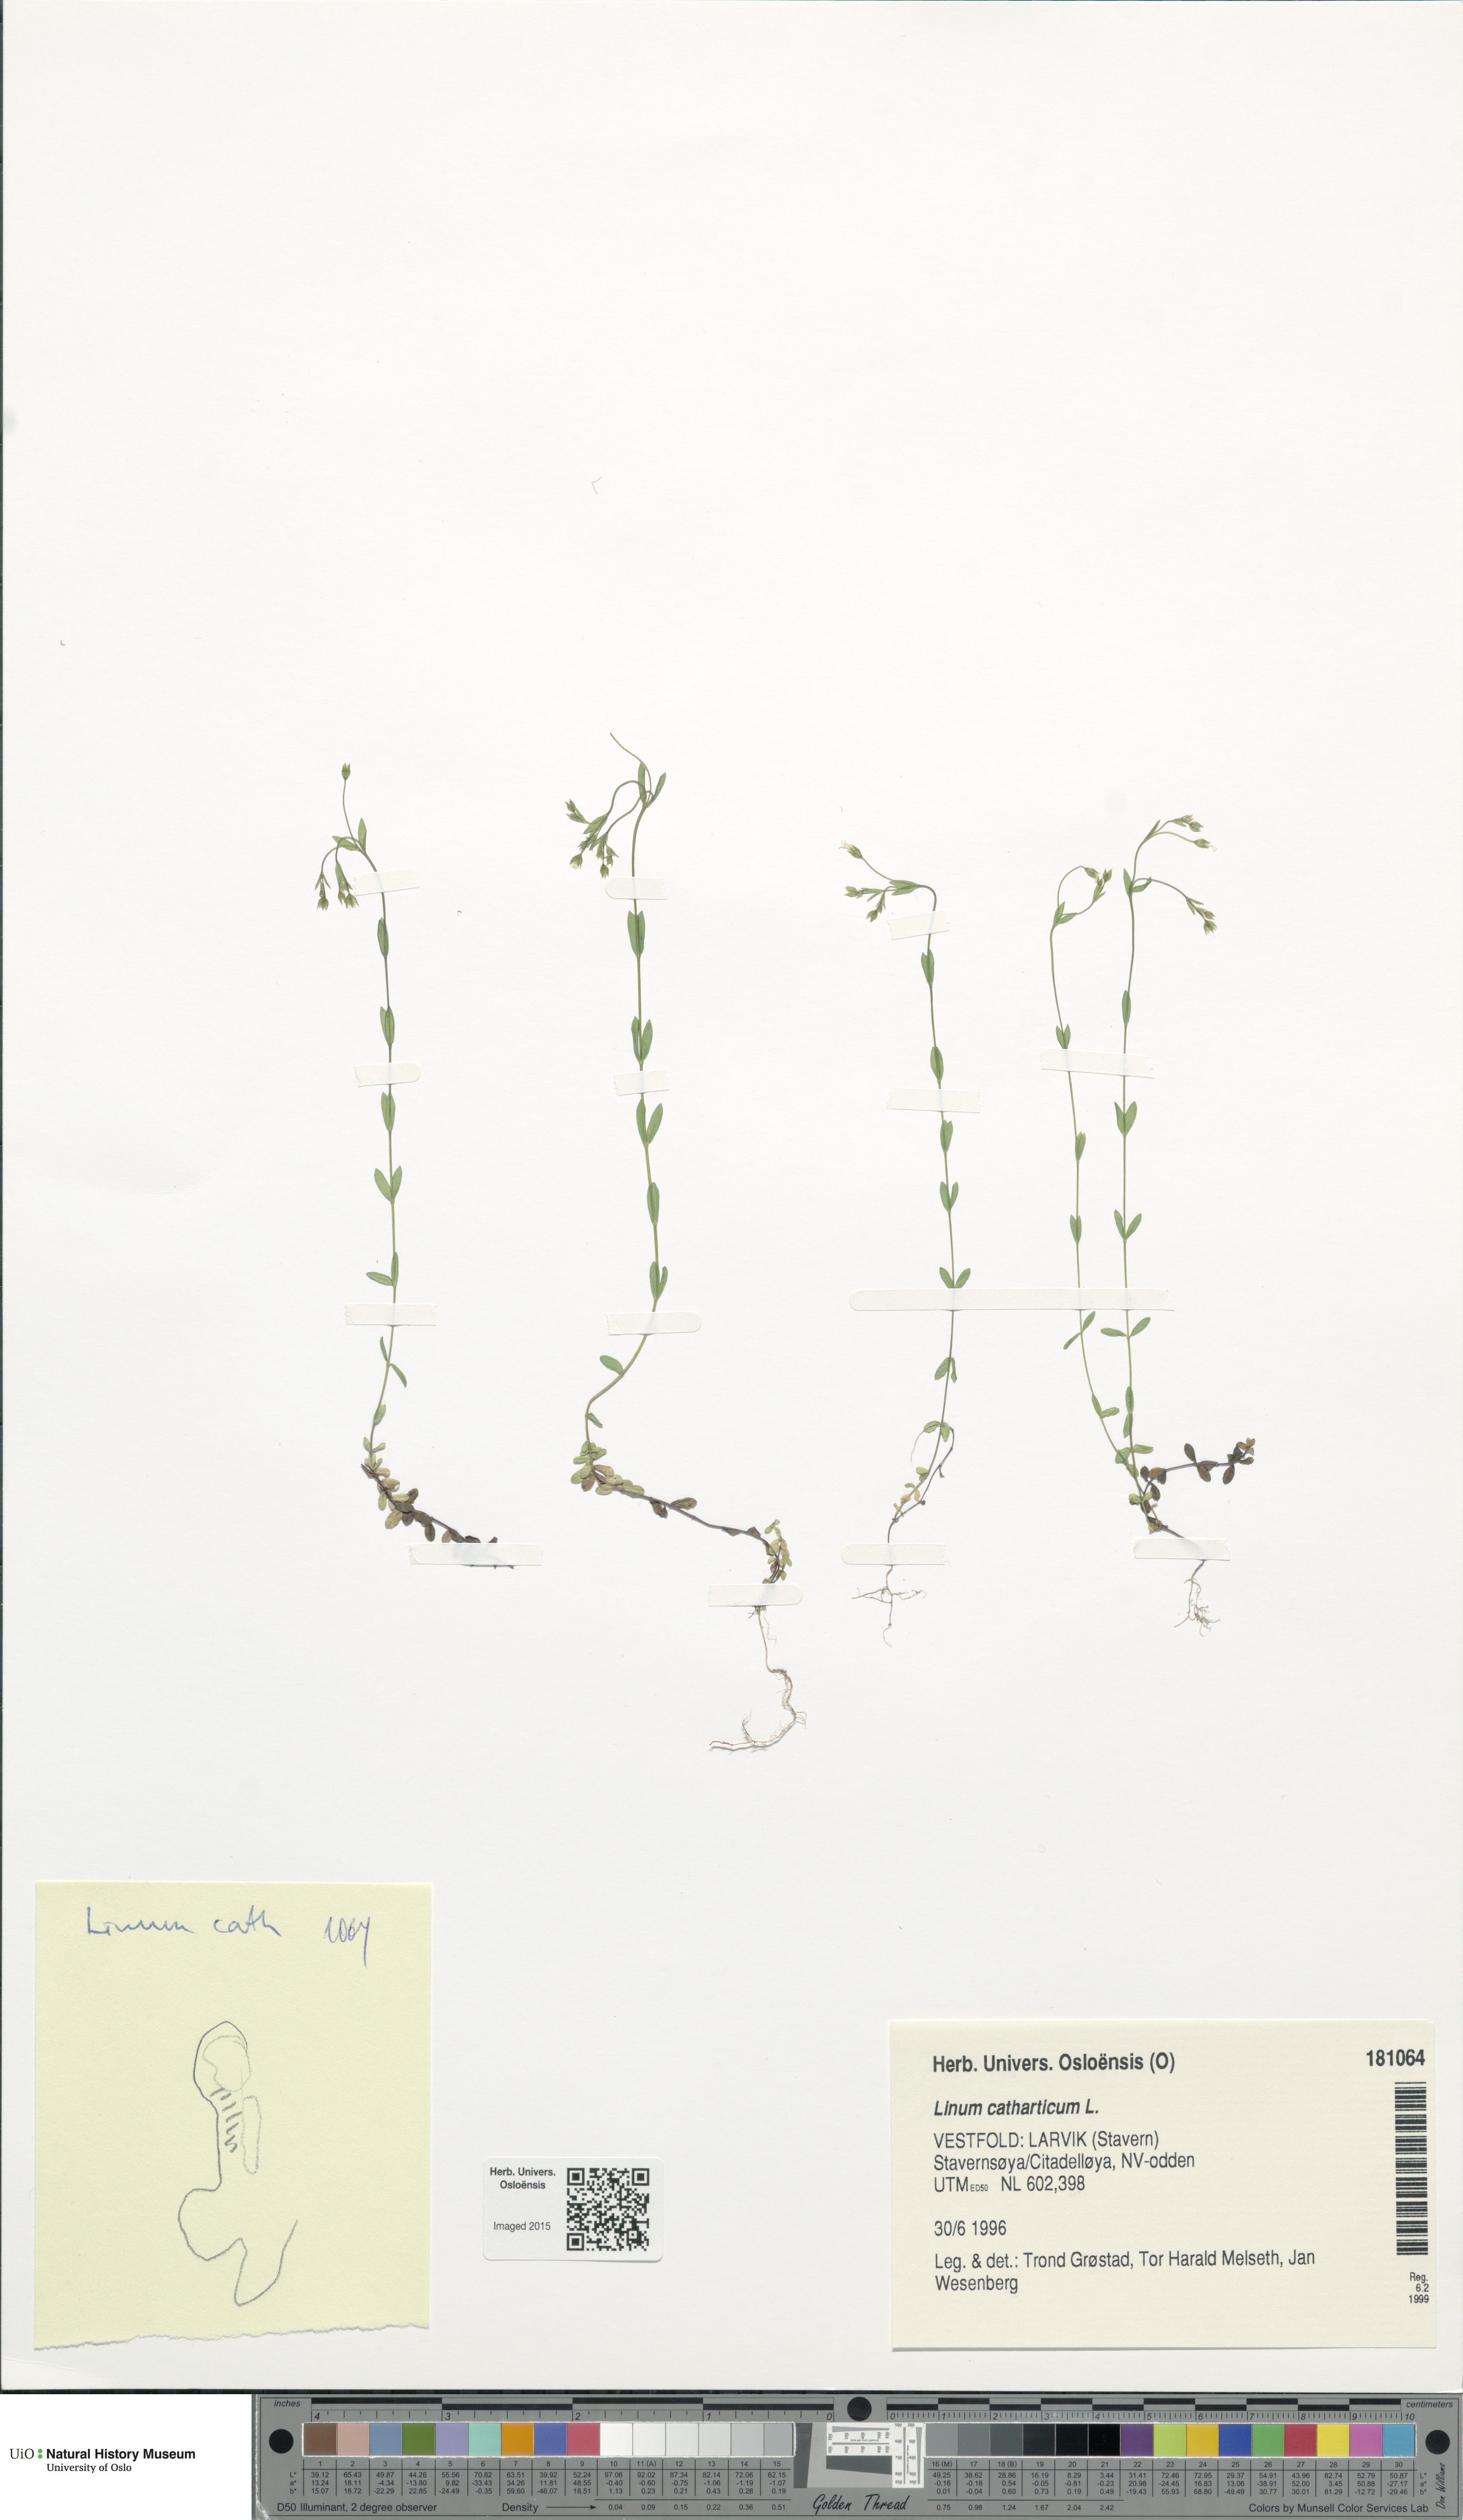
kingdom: Plantae
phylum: Tracheophyta
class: Magnoliopsida
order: Malpighiales
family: Linaceae
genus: Linum
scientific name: Linum catharticum
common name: Fairy flax
